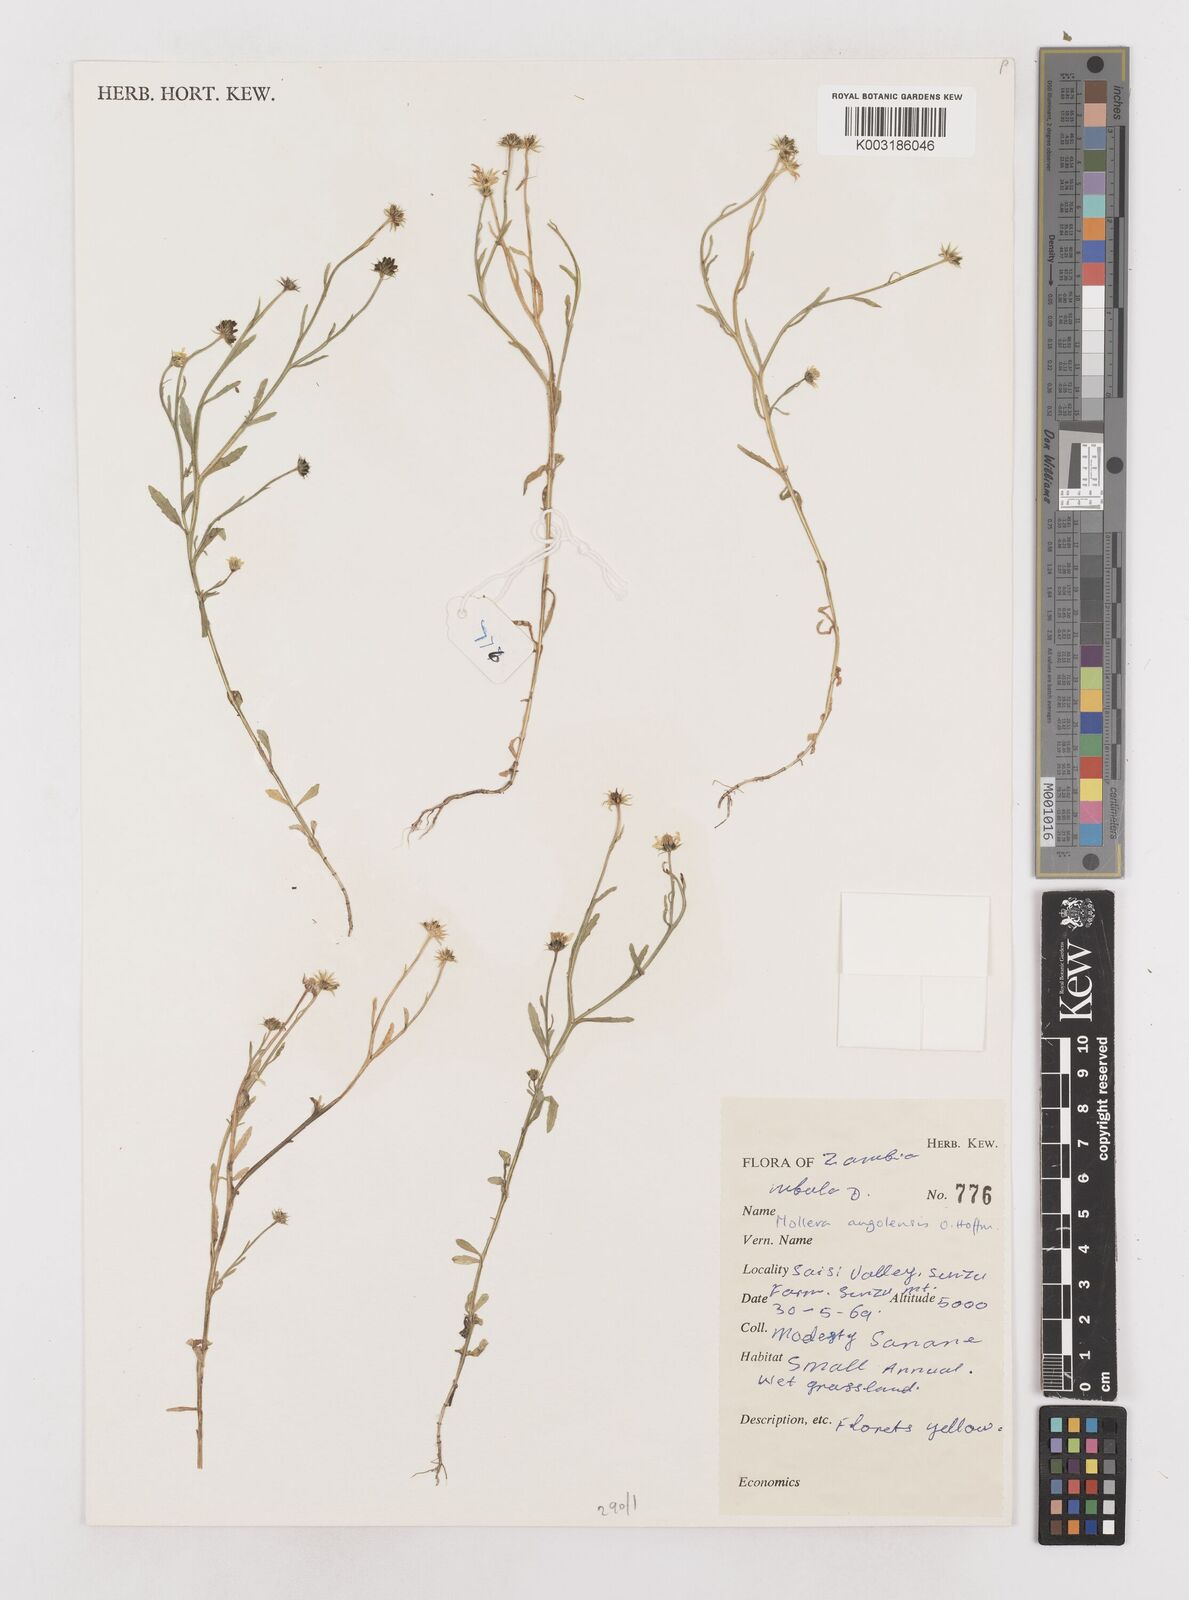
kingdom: Plantae
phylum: Tracheophyta
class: Magnoliopsida
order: Asterales
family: Asteraceae
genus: Calostephane
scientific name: Calostephane angolensis
